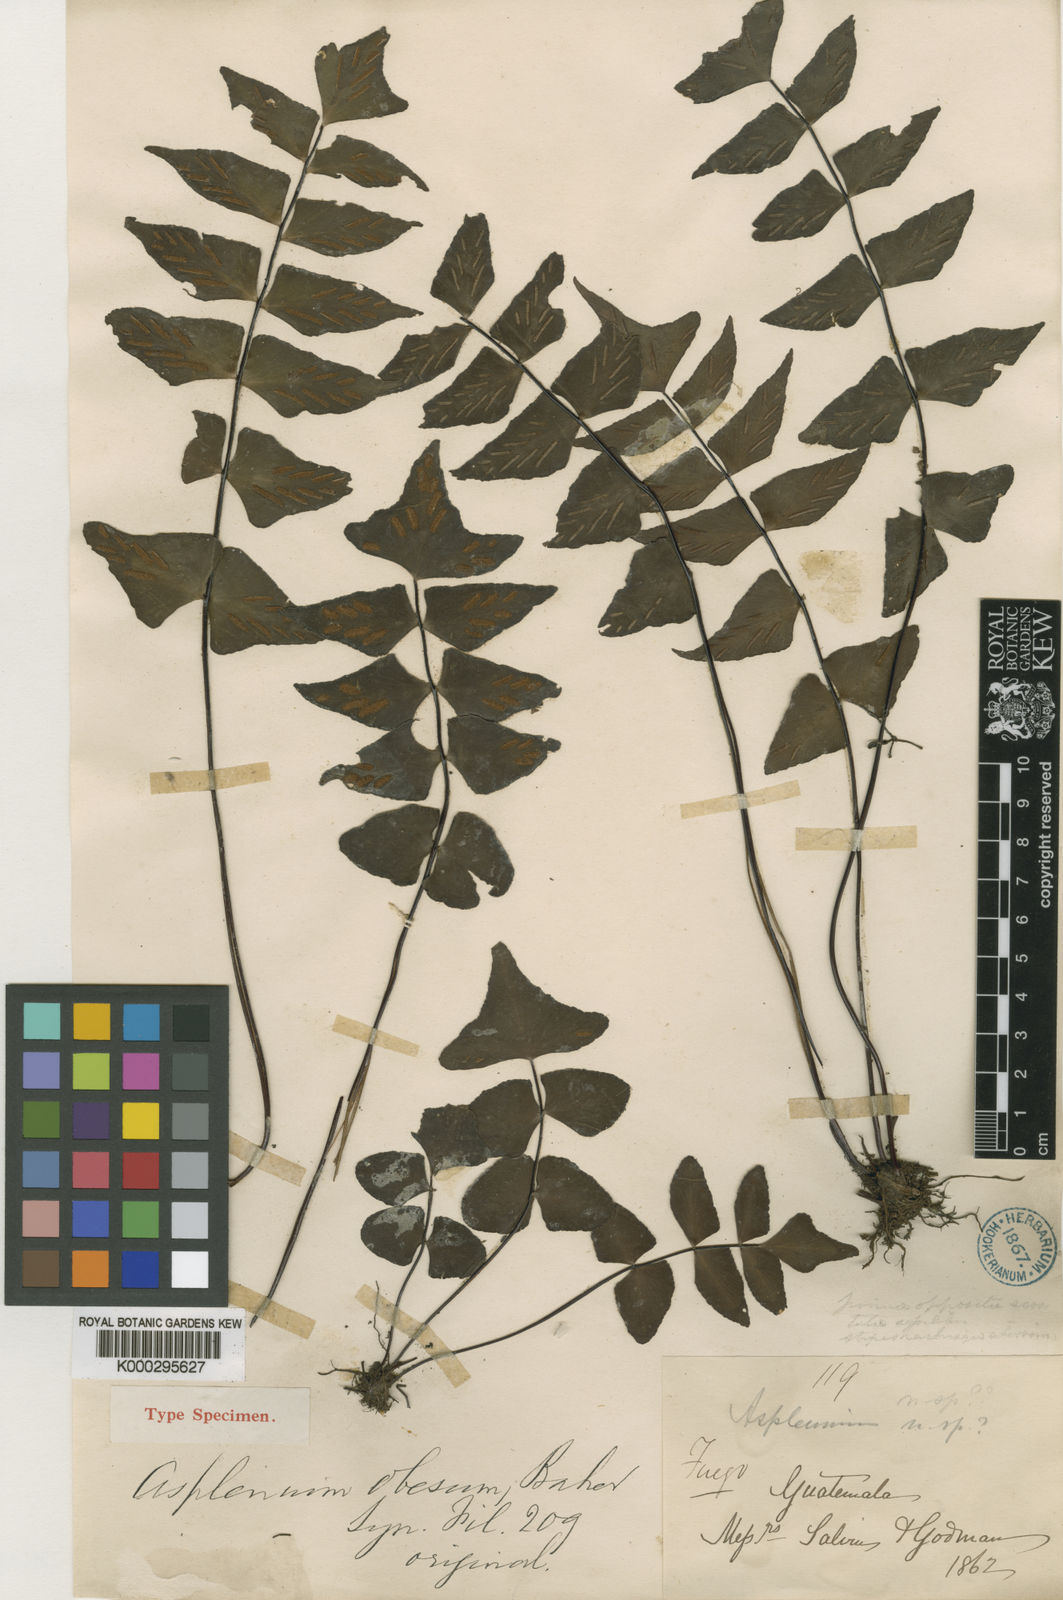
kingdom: Plantae
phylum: Tracheophyta
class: Polypodiopsida
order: Polypodiales
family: Aspleniaceae
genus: Asplenium
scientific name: Asplenium obesum
